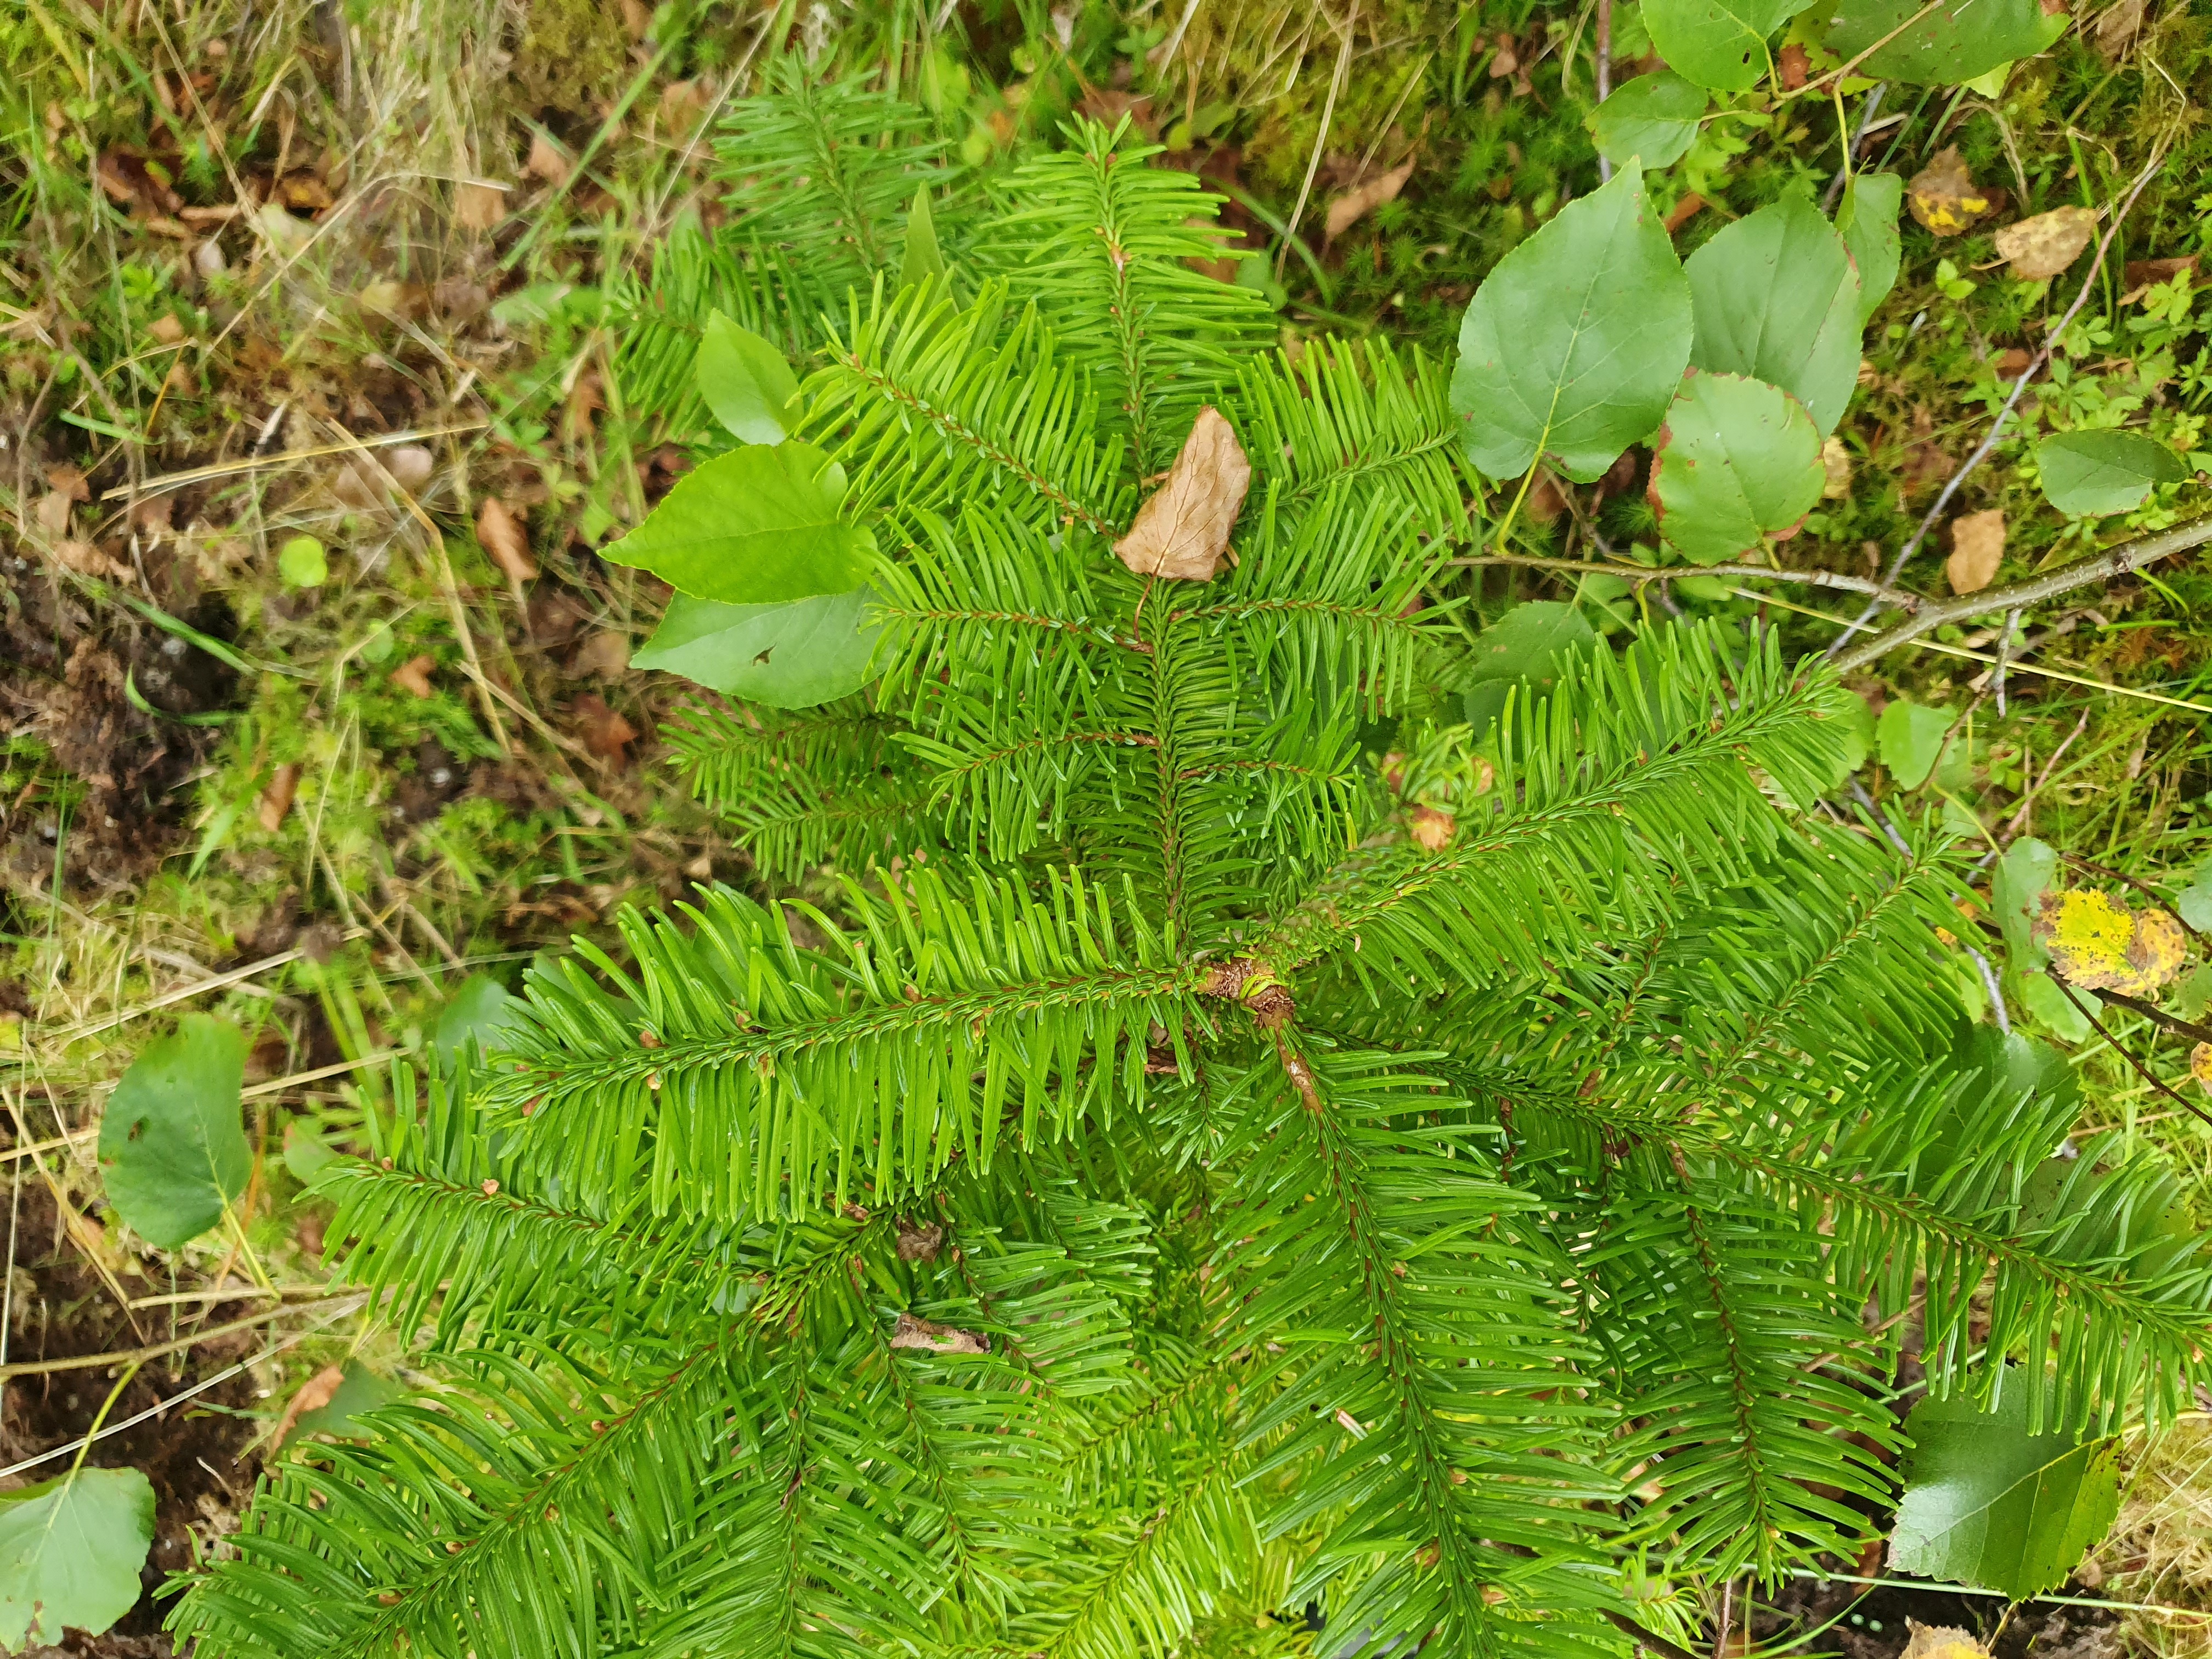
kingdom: Plantae
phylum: Tracheophyta
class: Pinopsida
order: Pinales
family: Pinaceae
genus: Abies
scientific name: Abies procera
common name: Noble fir
